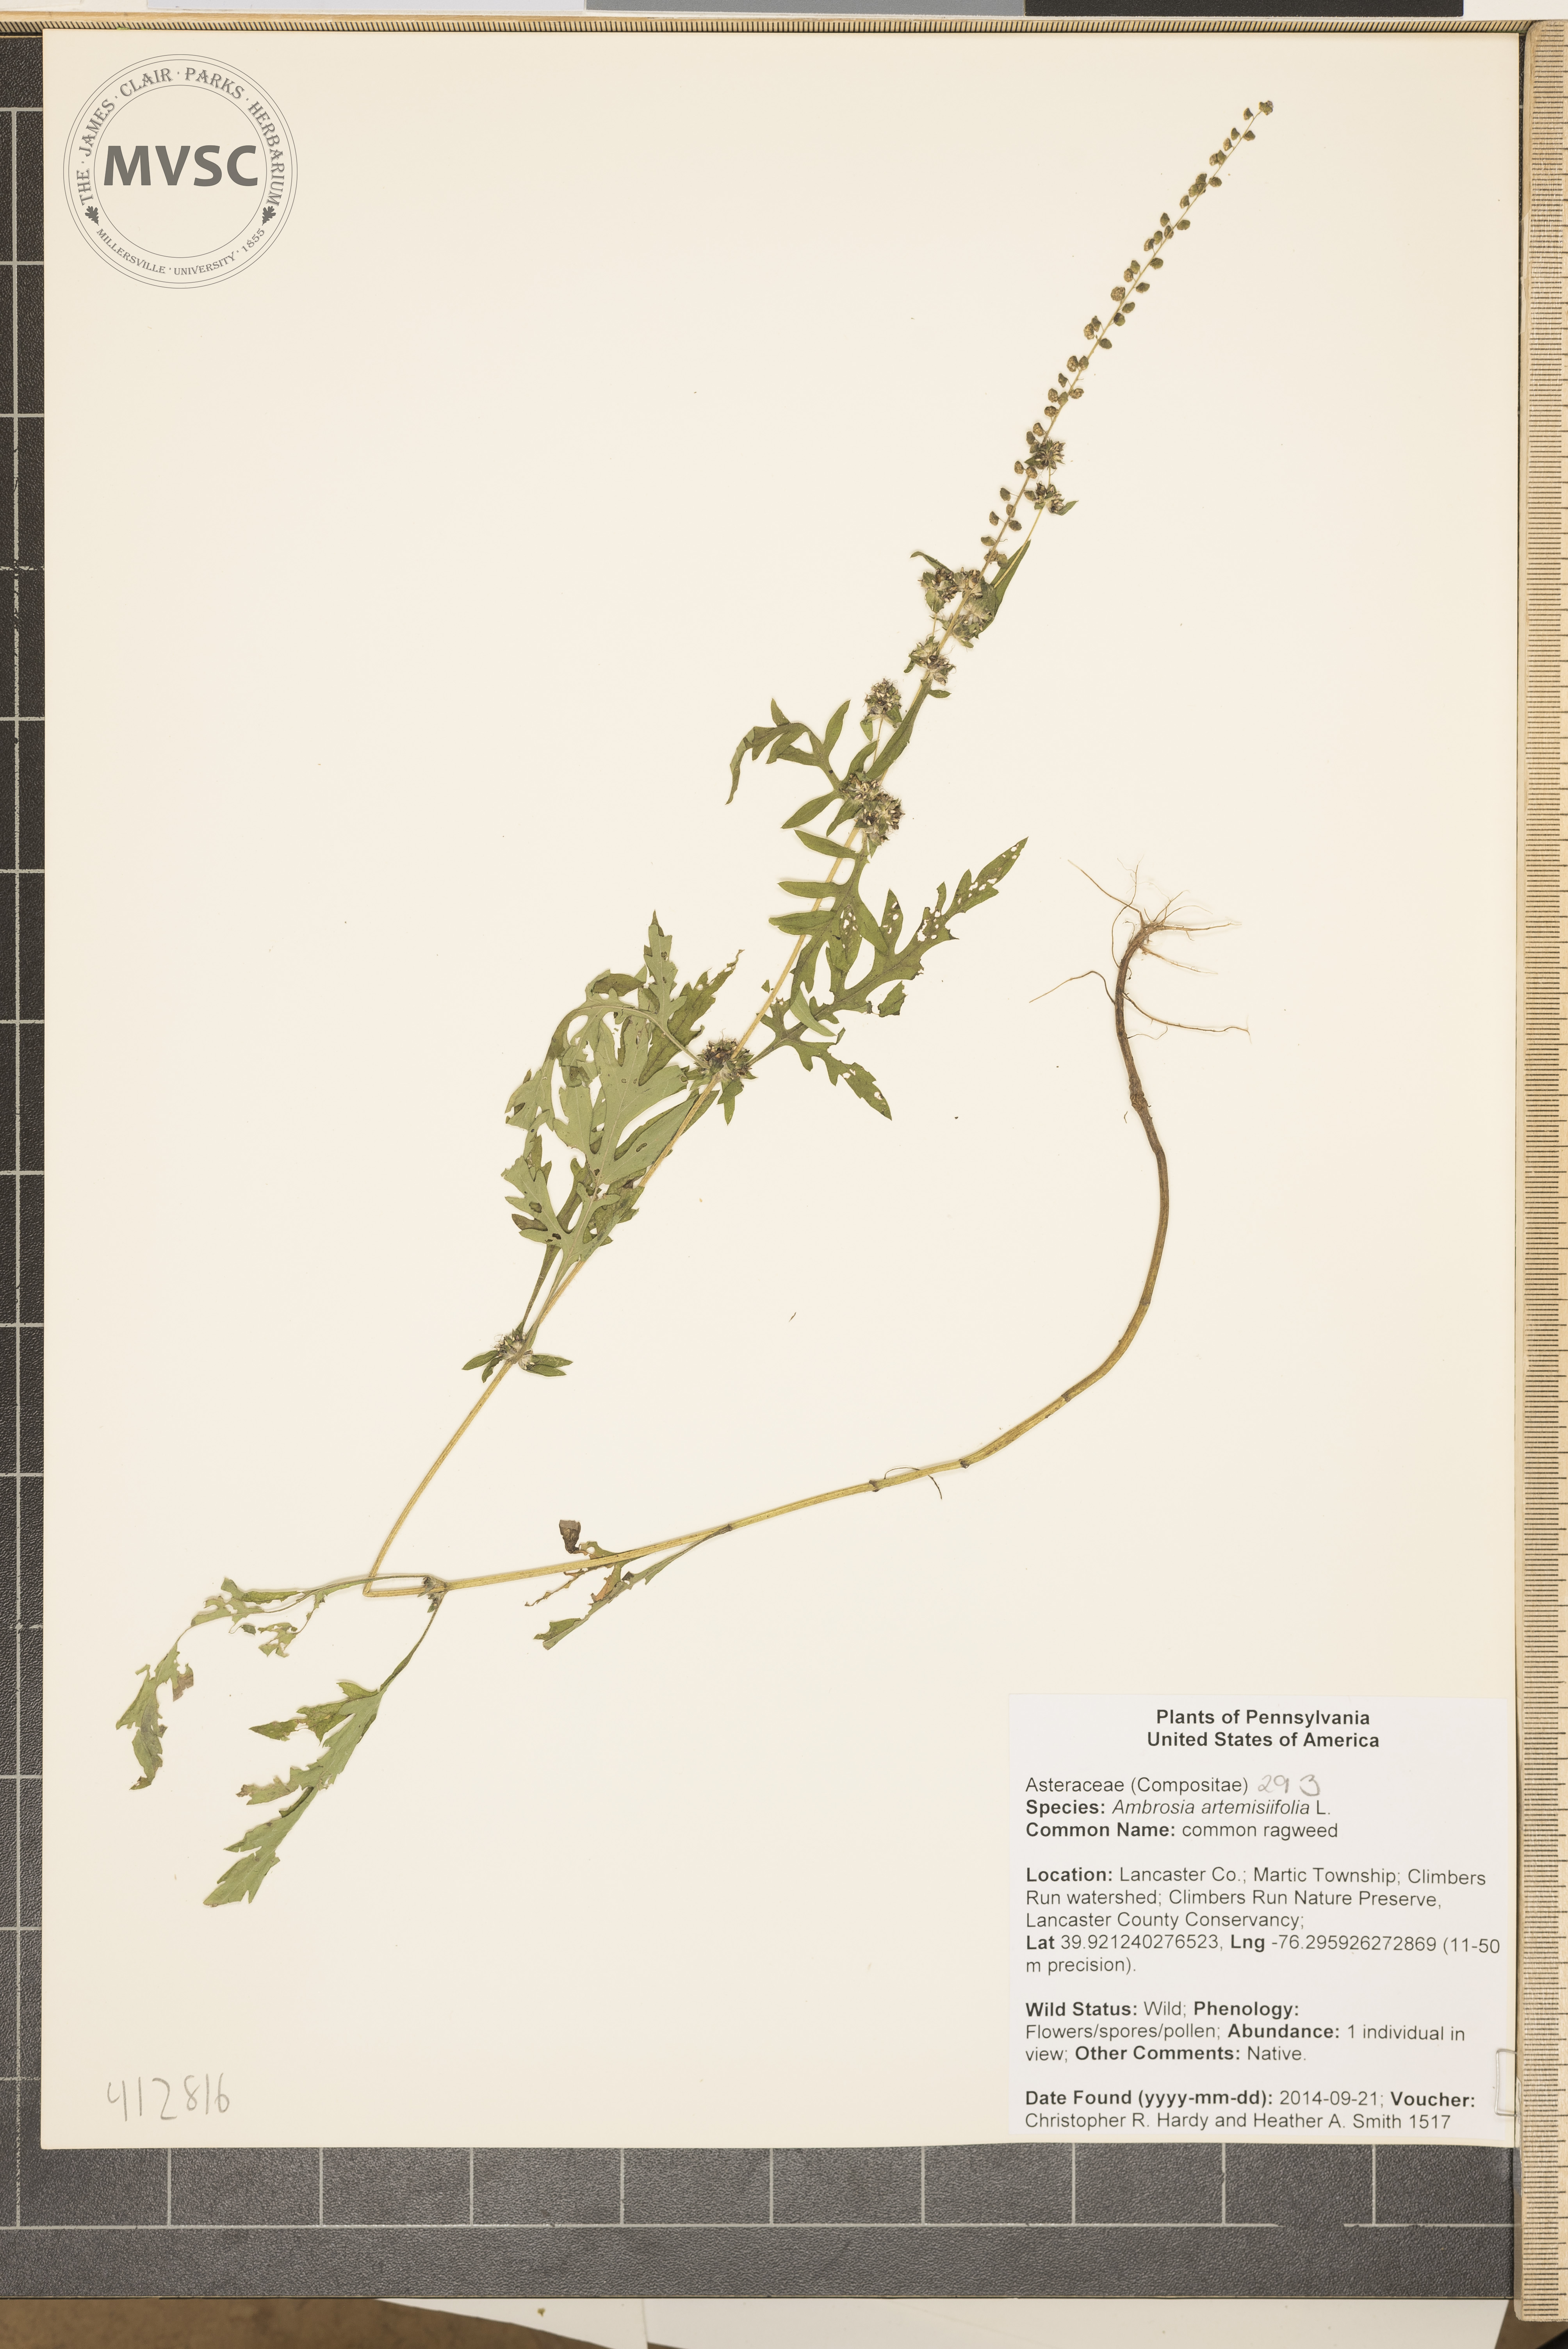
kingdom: Plantae
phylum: Tracheophyta
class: Magnoliopsida
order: Asterales
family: Asteraceae
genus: Ambrosia
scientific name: Ambrosia artemisiifolia
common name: common ragweed
